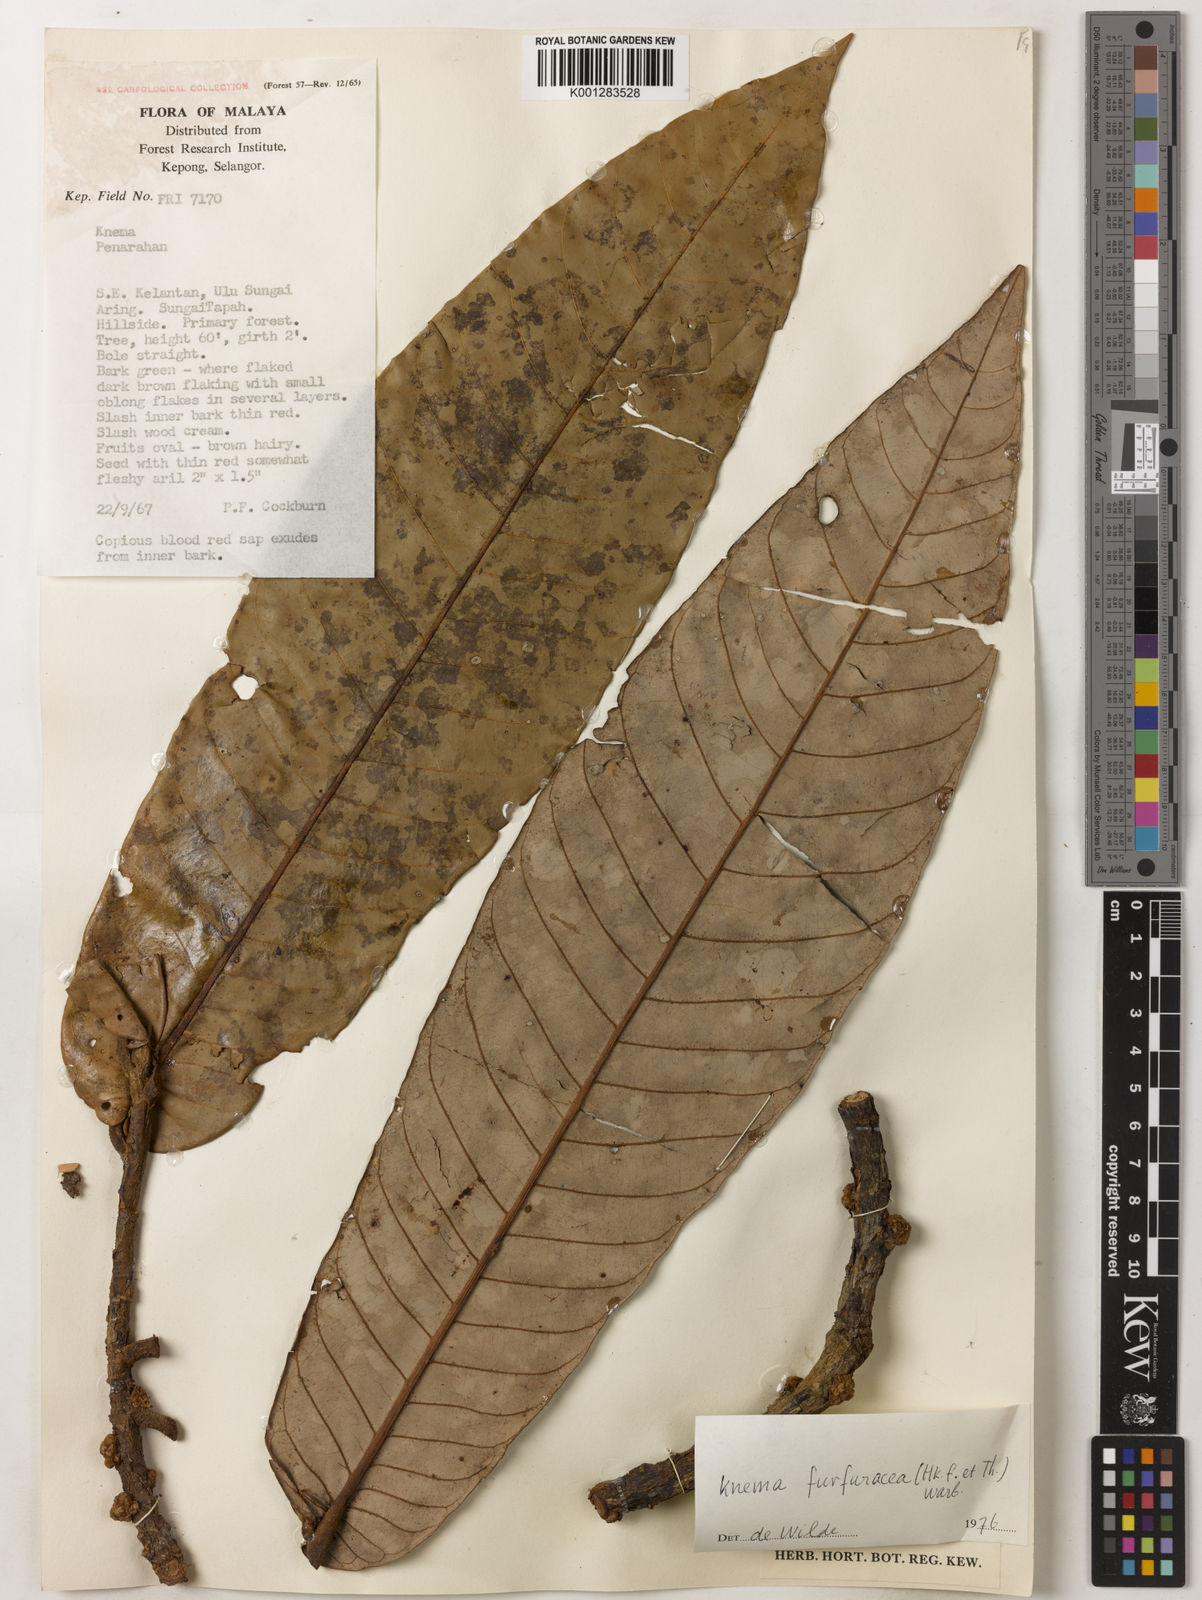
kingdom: Plantae
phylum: Tracheophyta
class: Magnoliopsida
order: Magnoliales
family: Myristicaceae
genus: Knema
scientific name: Knema furfuracea
